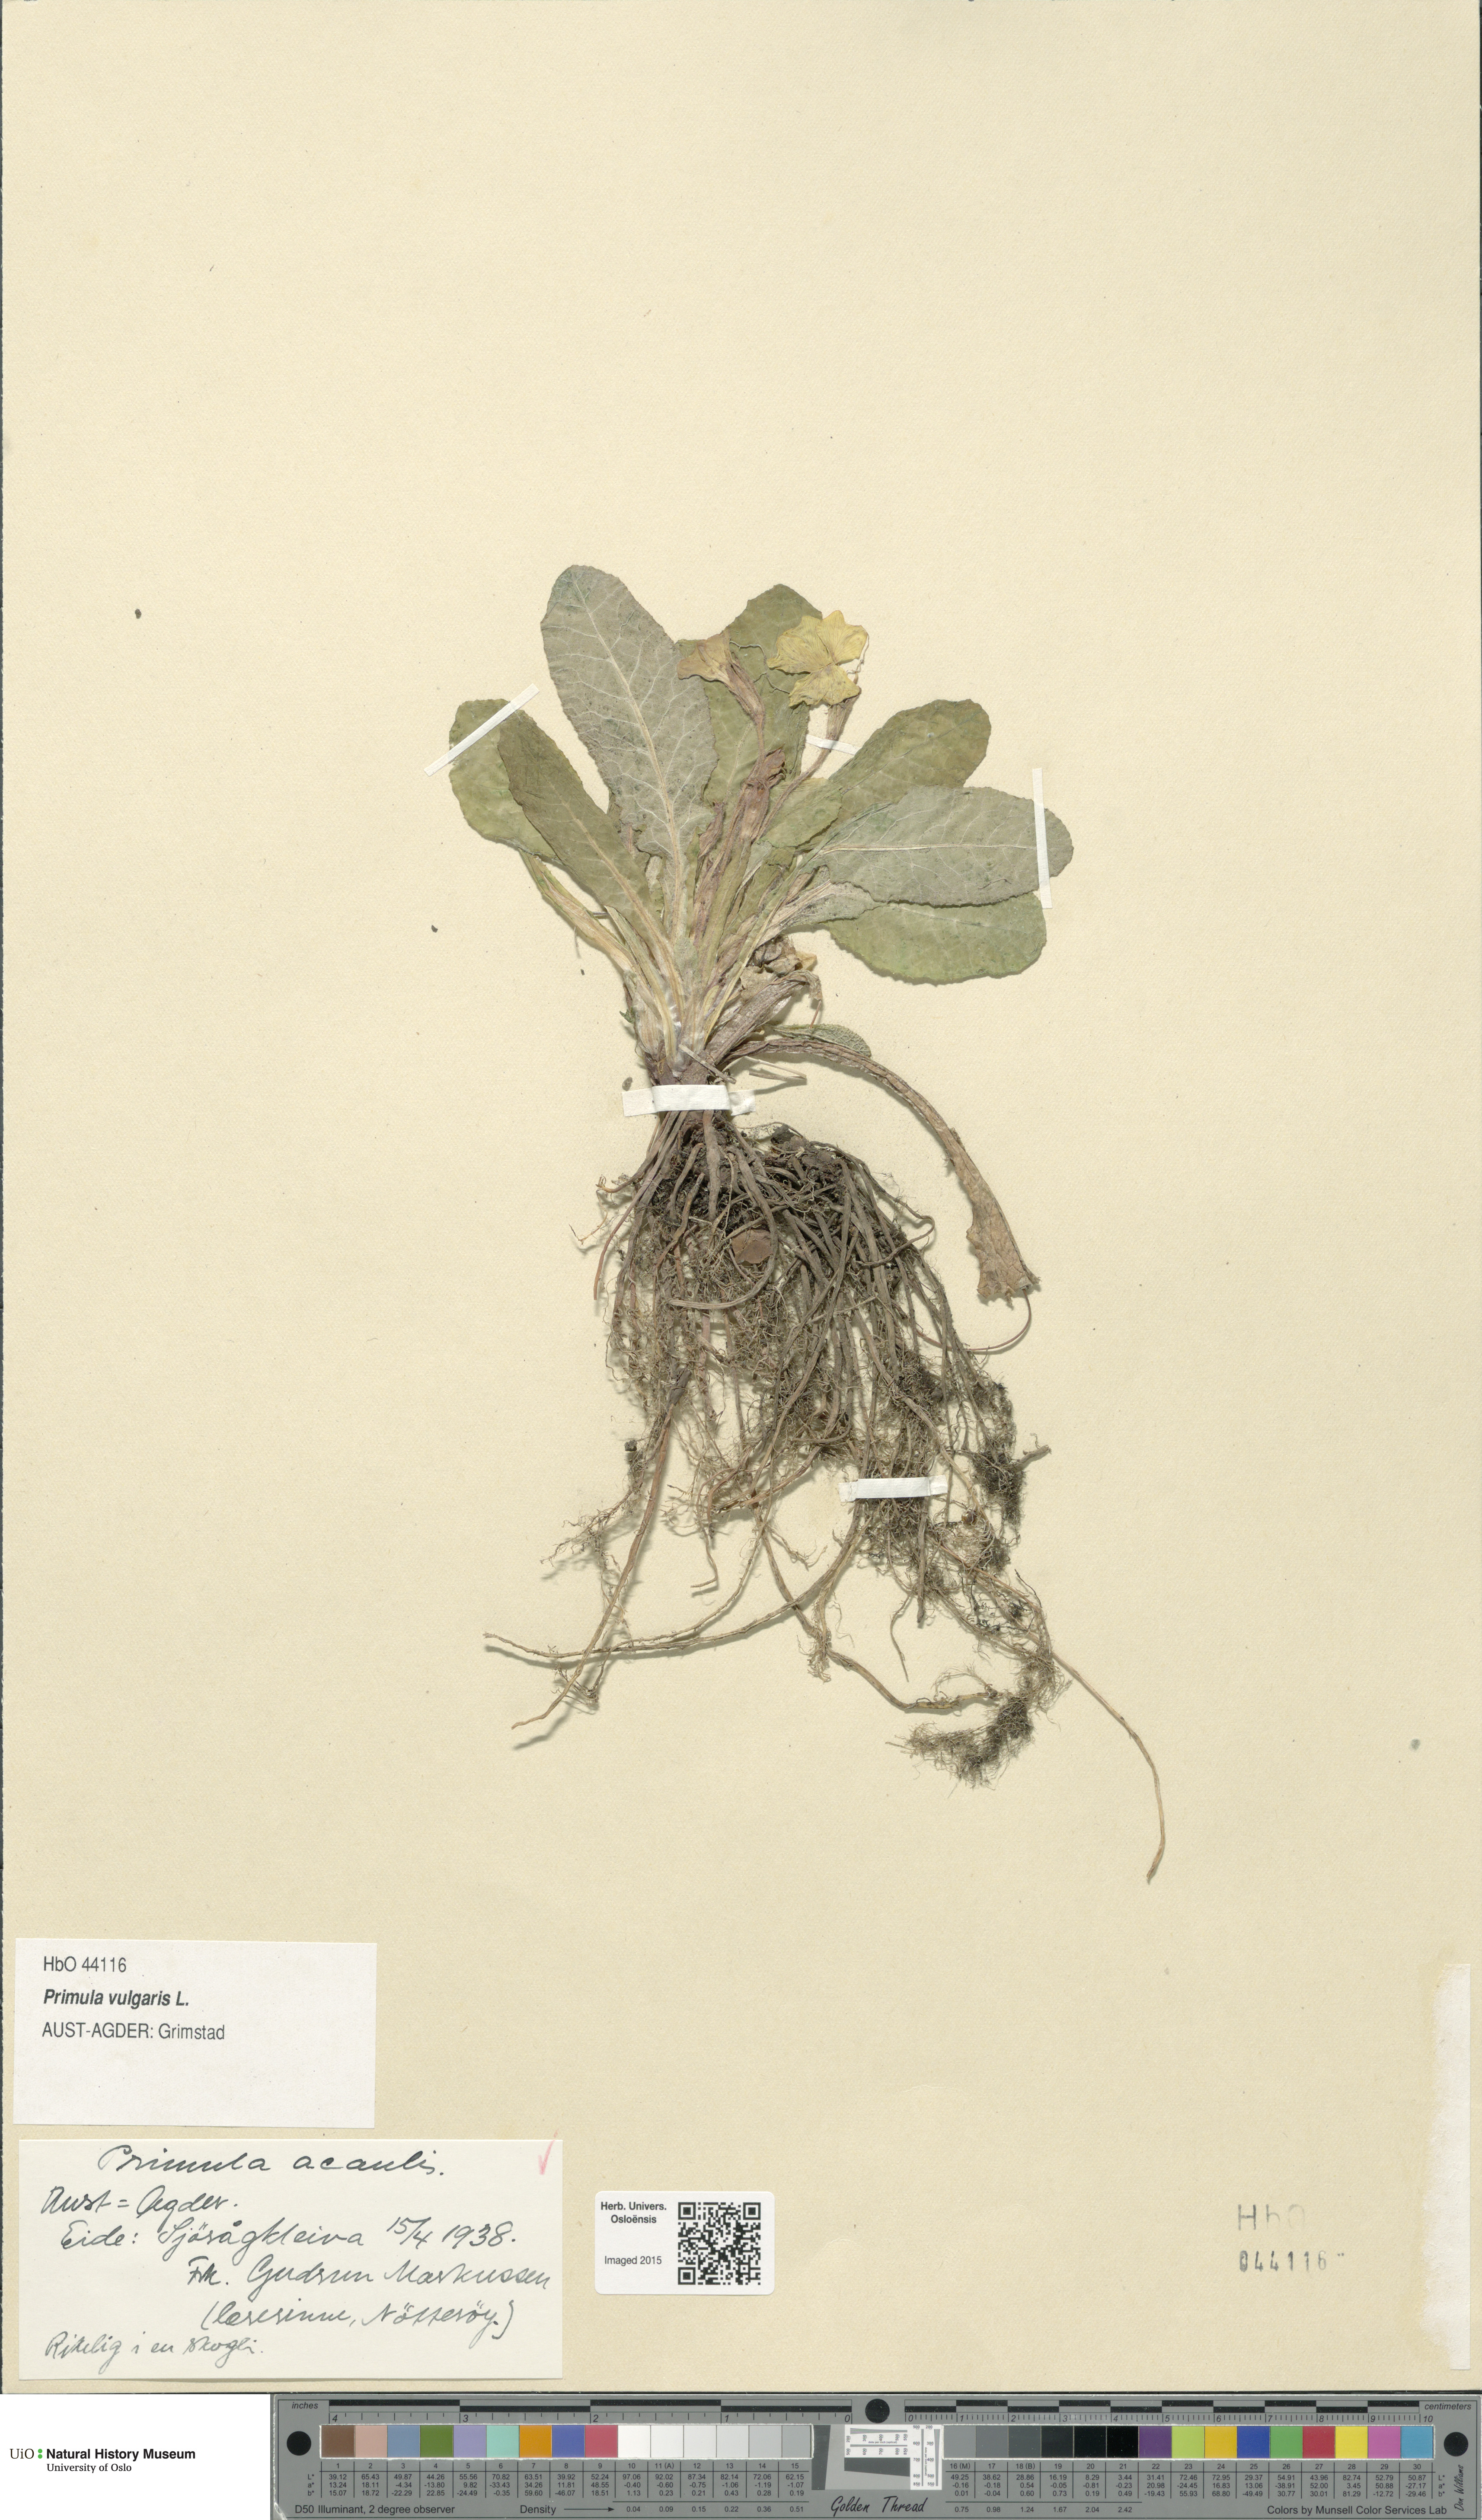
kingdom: Plantae
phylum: Tracheophyta
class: Magnoliopsida
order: Ericales
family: Primulaceae
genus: Primula
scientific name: Primula vulgaris
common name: Primrose
